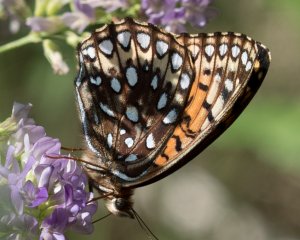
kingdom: Animalia
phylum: Arthropoda
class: Insecta
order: Lepidoptera
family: Nymphalidae
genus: Speyeria
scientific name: Speyeria atlantis
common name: Atlantis Fritillary
